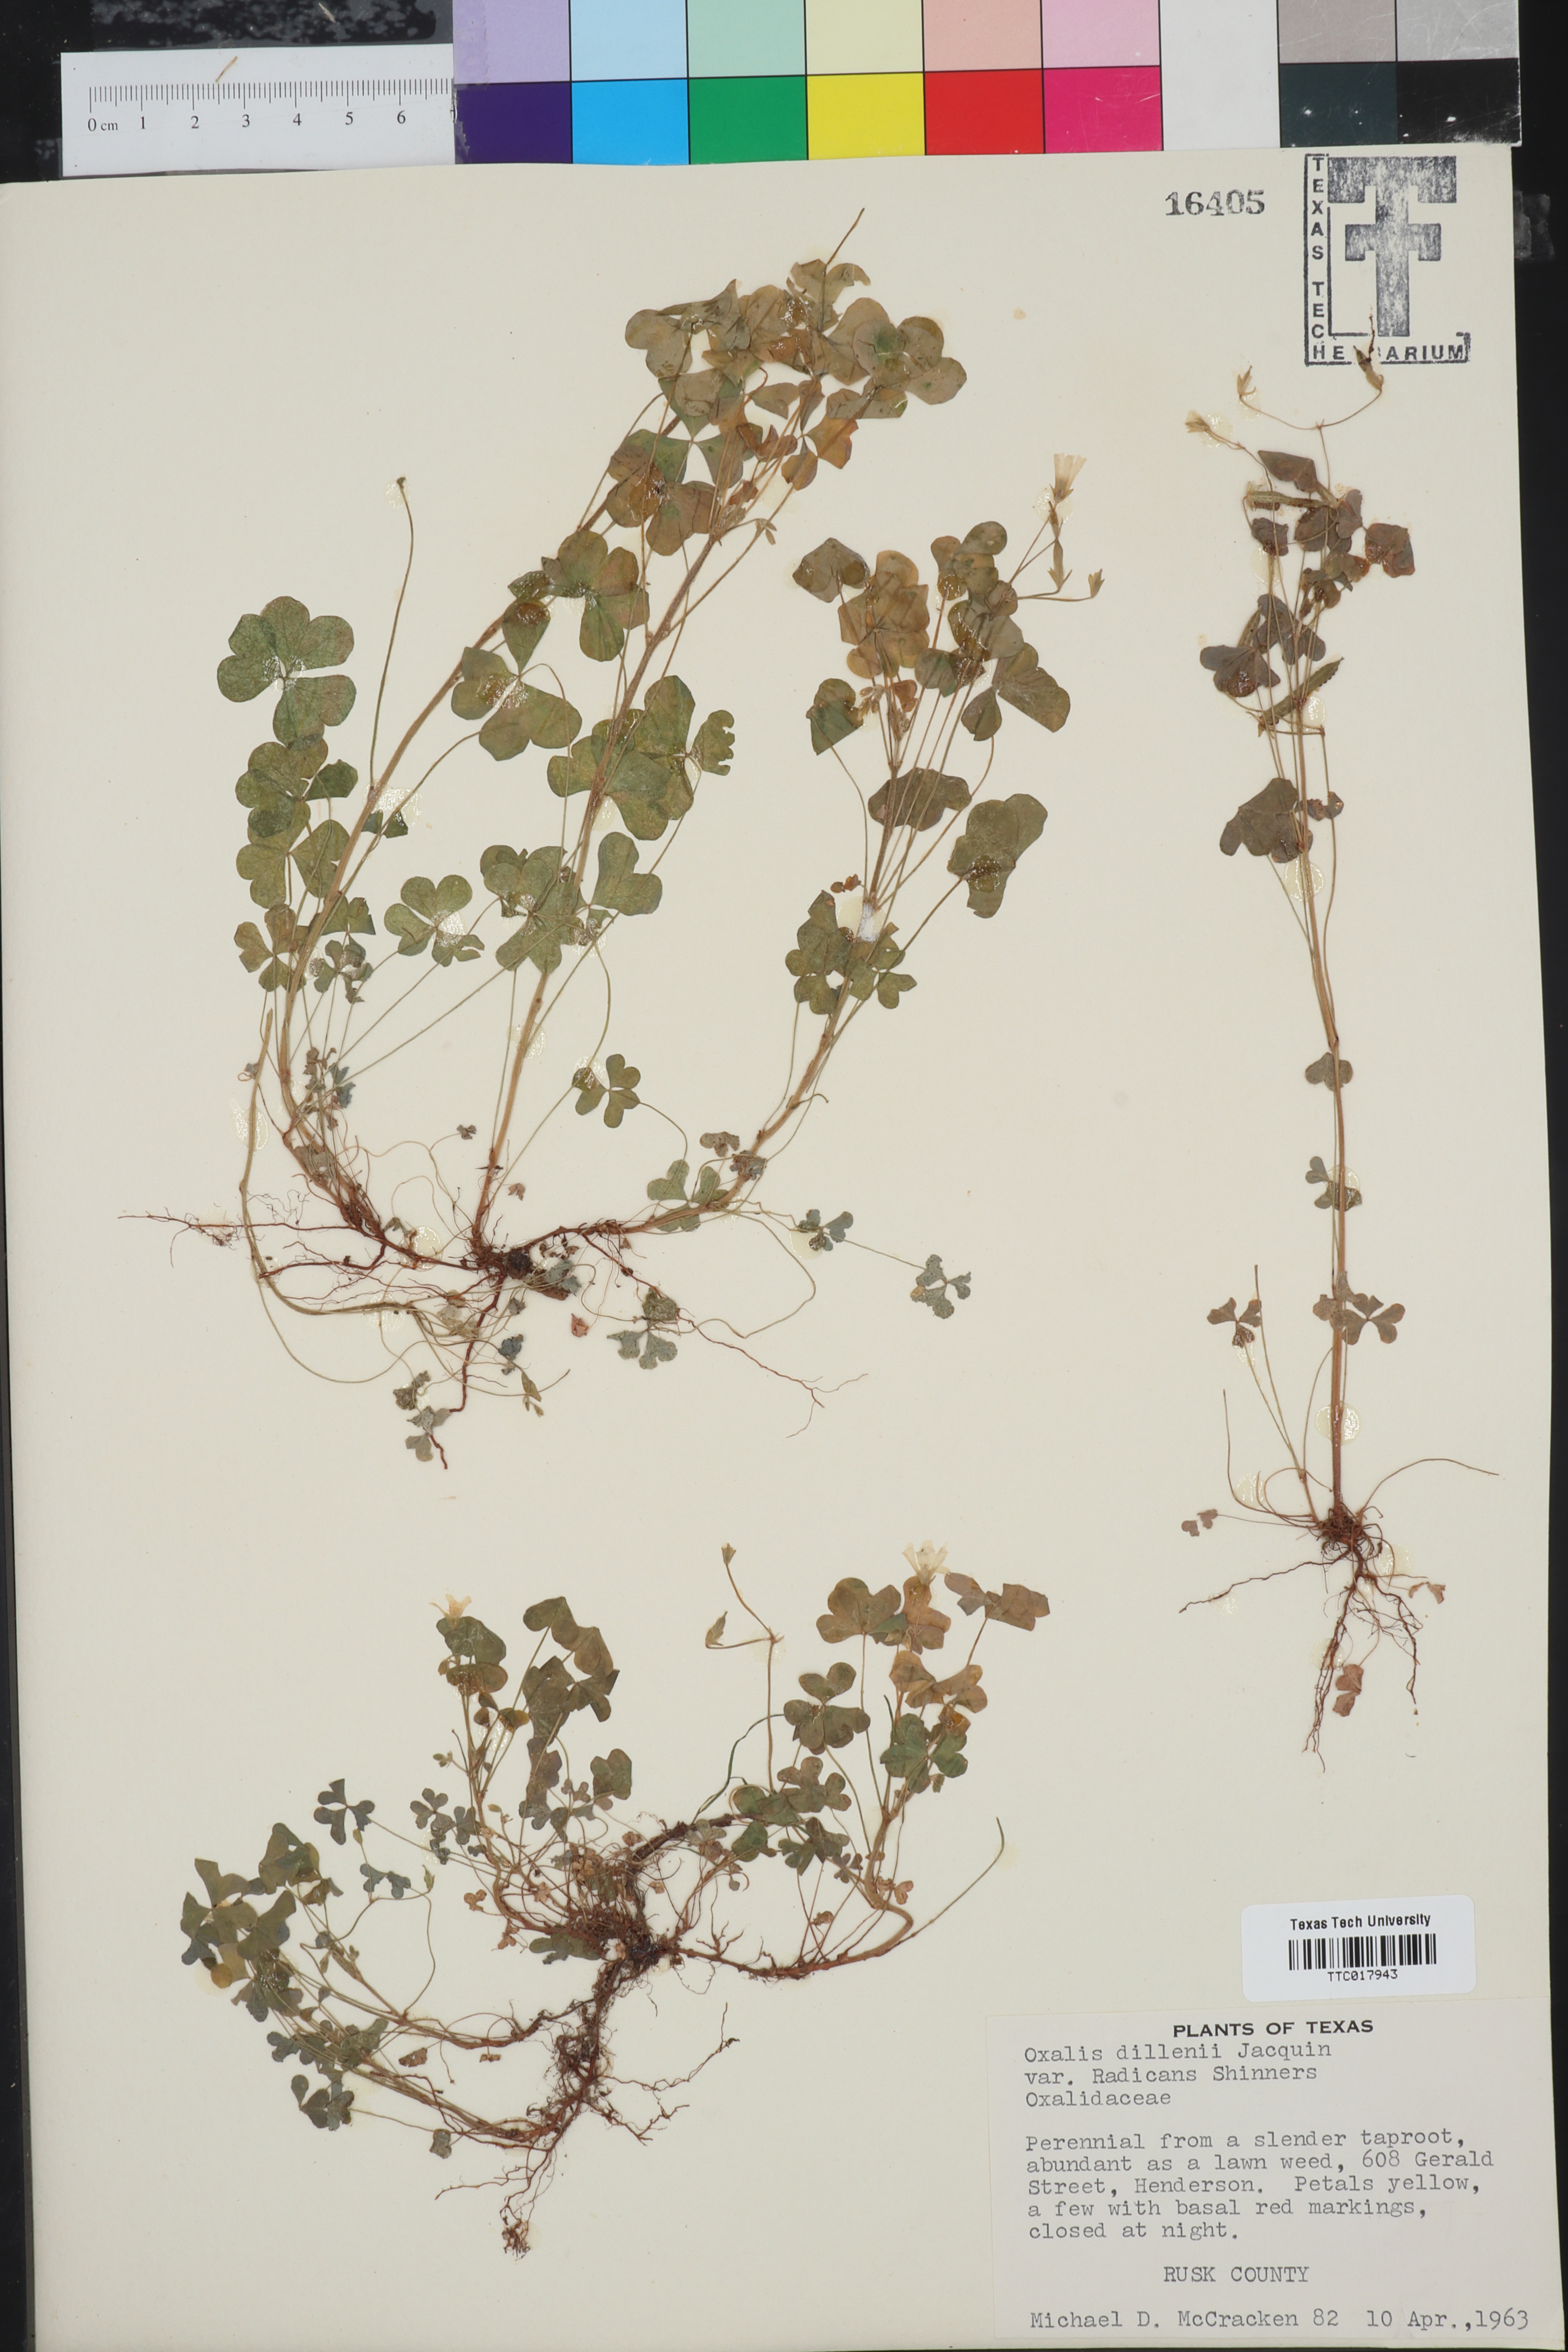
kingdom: Plantae
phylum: Tracheophyta
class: Magnoliopsida
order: Oxalidales
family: Oxalidaceae
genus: Oxalis
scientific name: Oxalis dillenii
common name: Sussex yellow-sorrel
